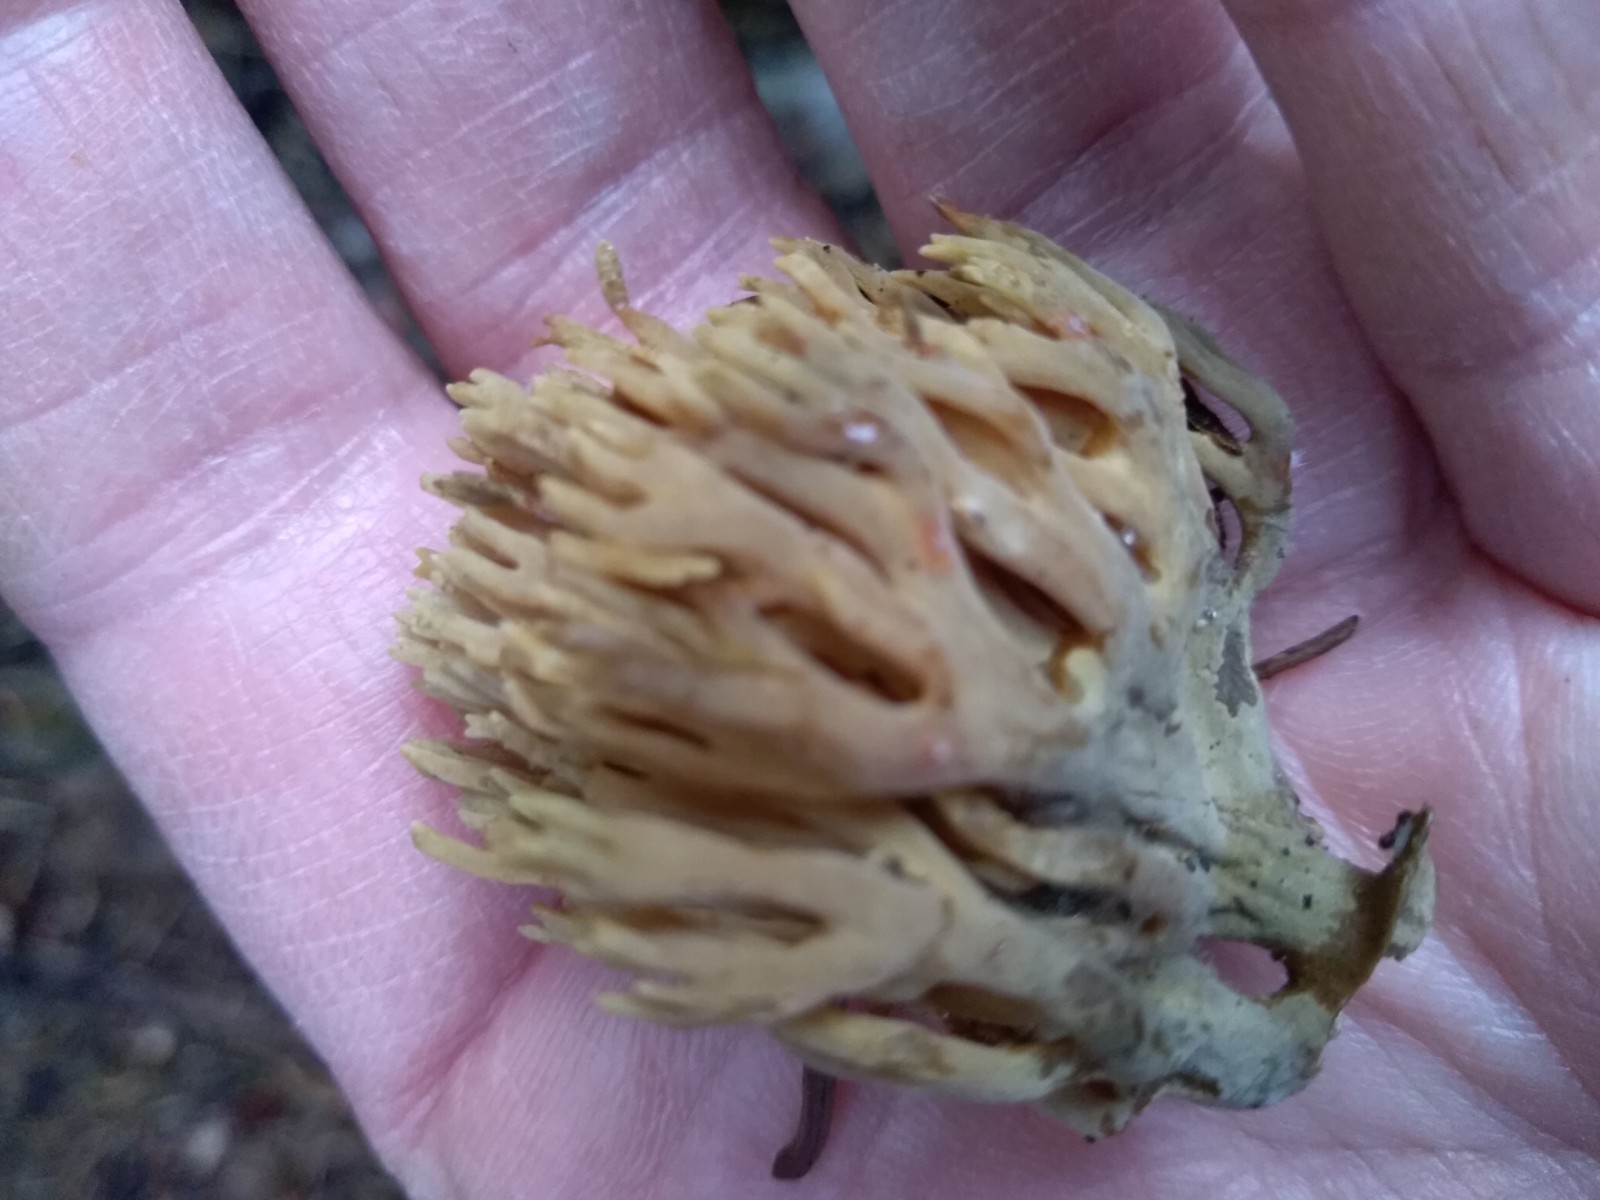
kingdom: Fungi
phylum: Basidiomycota
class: Agaricomycetes
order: Gomphales
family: Gomphaceae
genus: Phaeoclavulina
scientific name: Phaeoclavulina eumorpha
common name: gran-koralsvamp
